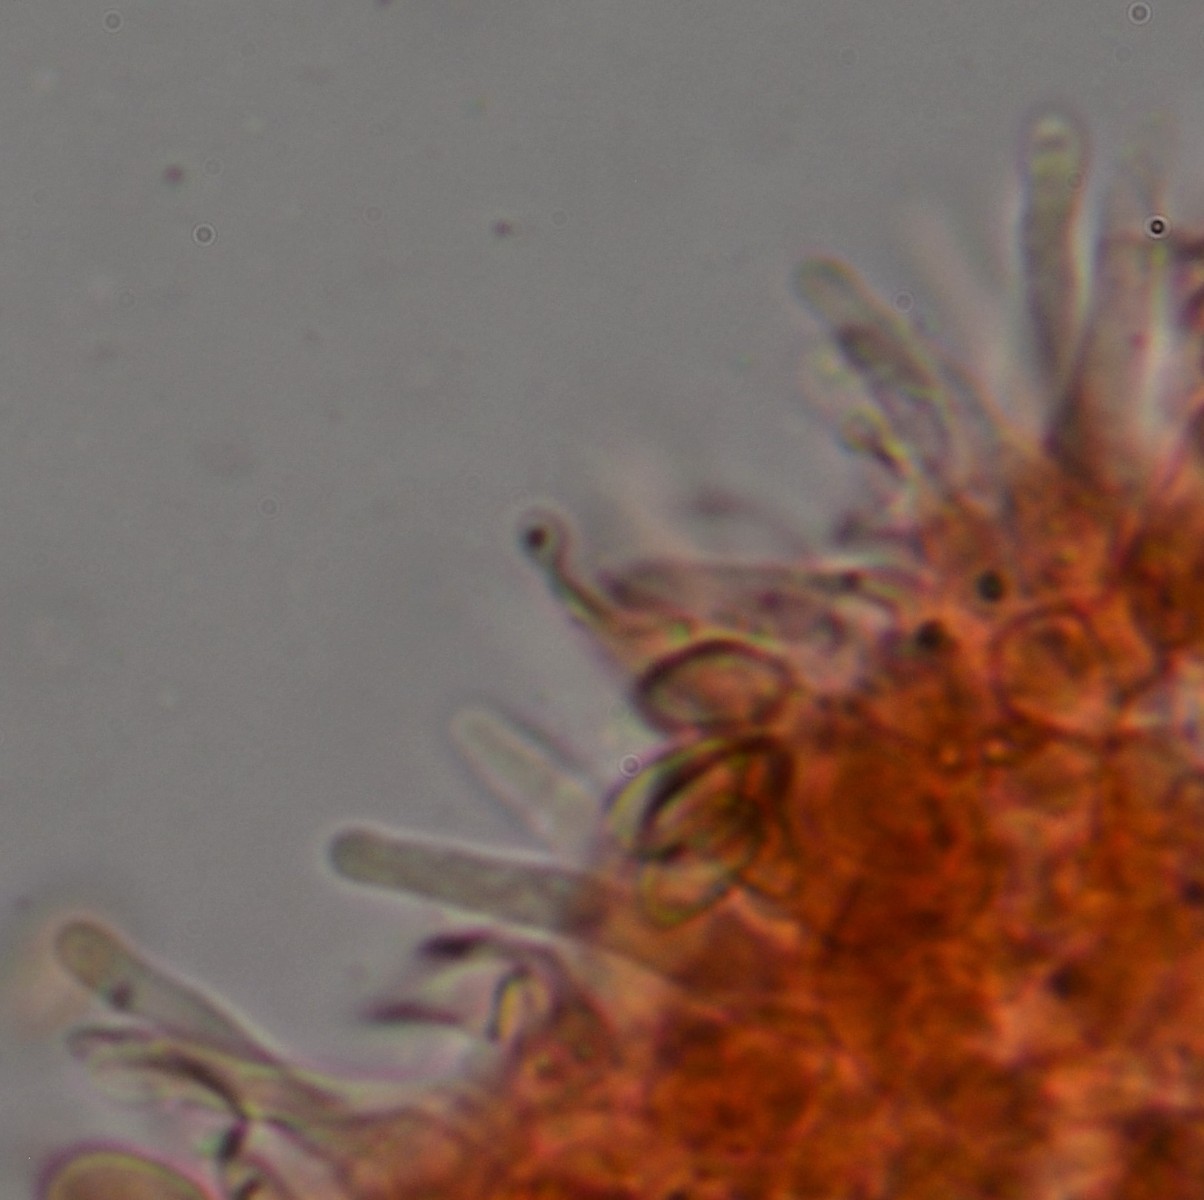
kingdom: Fungi
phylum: Basidiomycota
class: Agaricomycetes
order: Agaricales
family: Strophariaceae
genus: Deconica
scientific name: Deconica phillipsii
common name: almindelig stråhat
